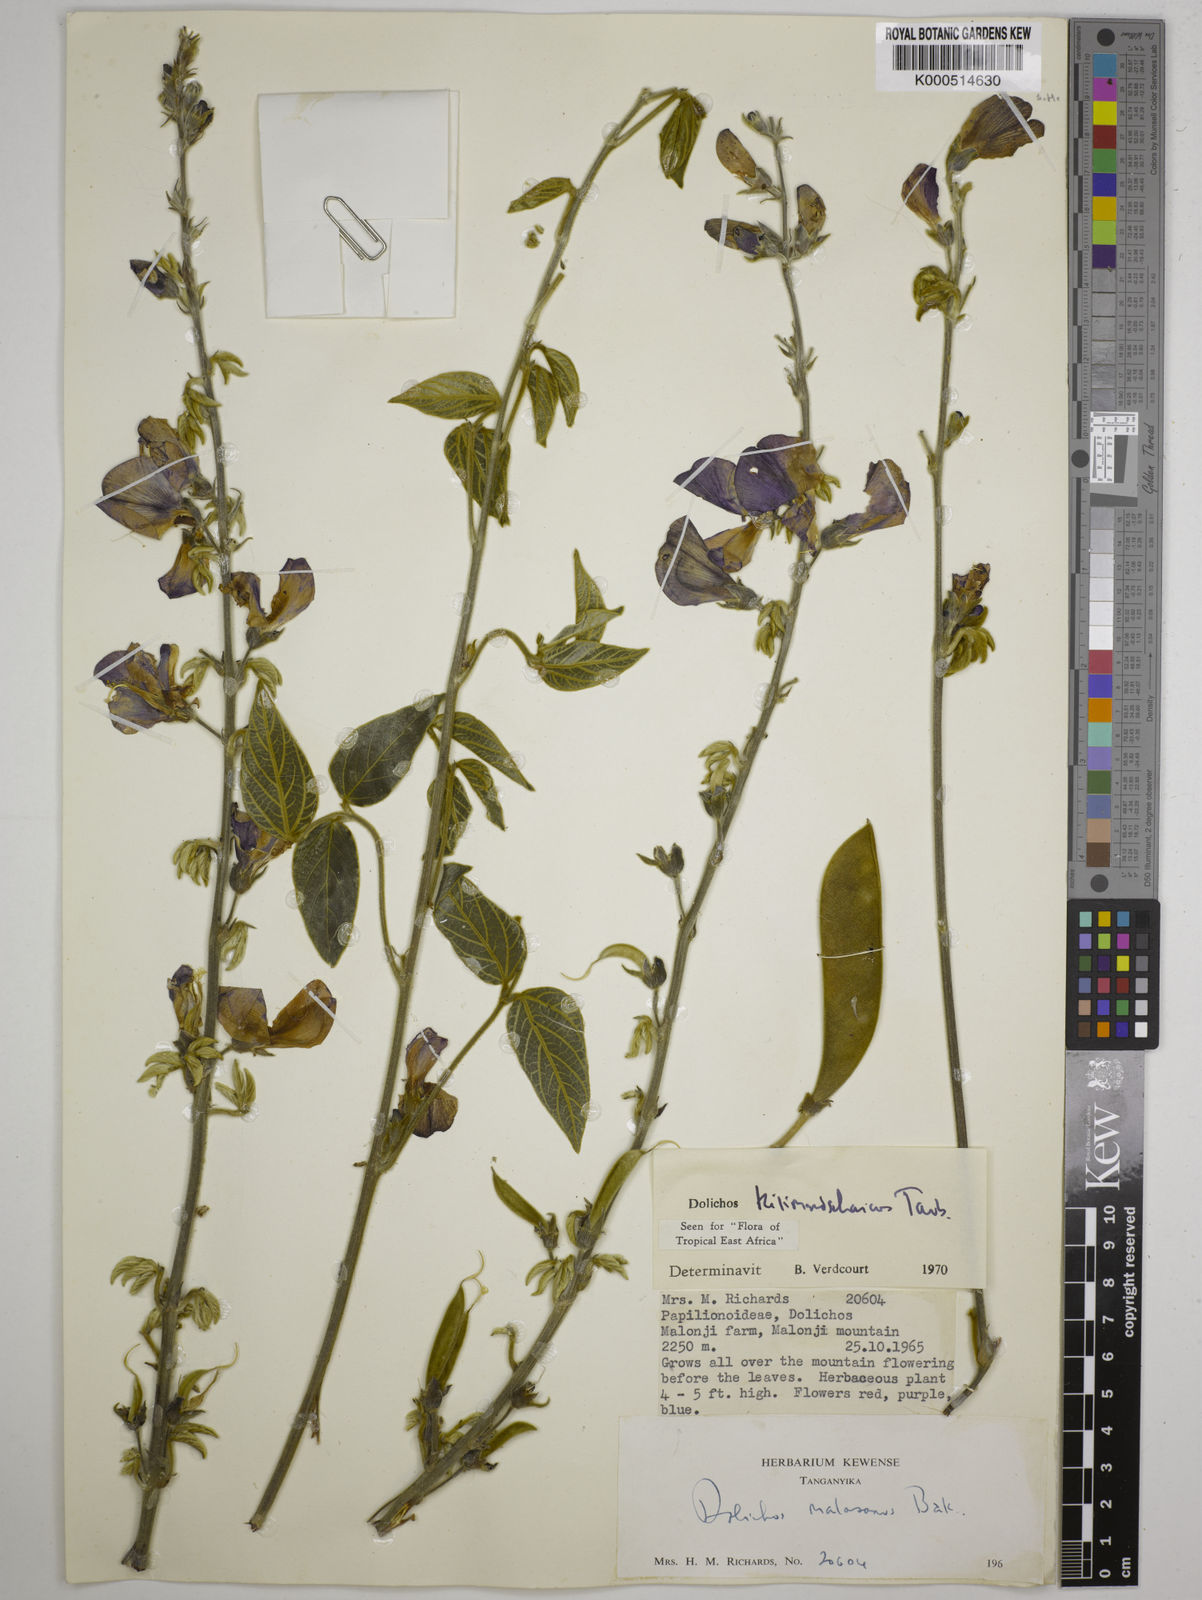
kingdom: Plantae
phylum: Tracheophyta
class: Magnoliopsida
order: Fabales
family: Fabaceae
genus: Dolichos
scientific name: Dolichos kilimandscharicus
